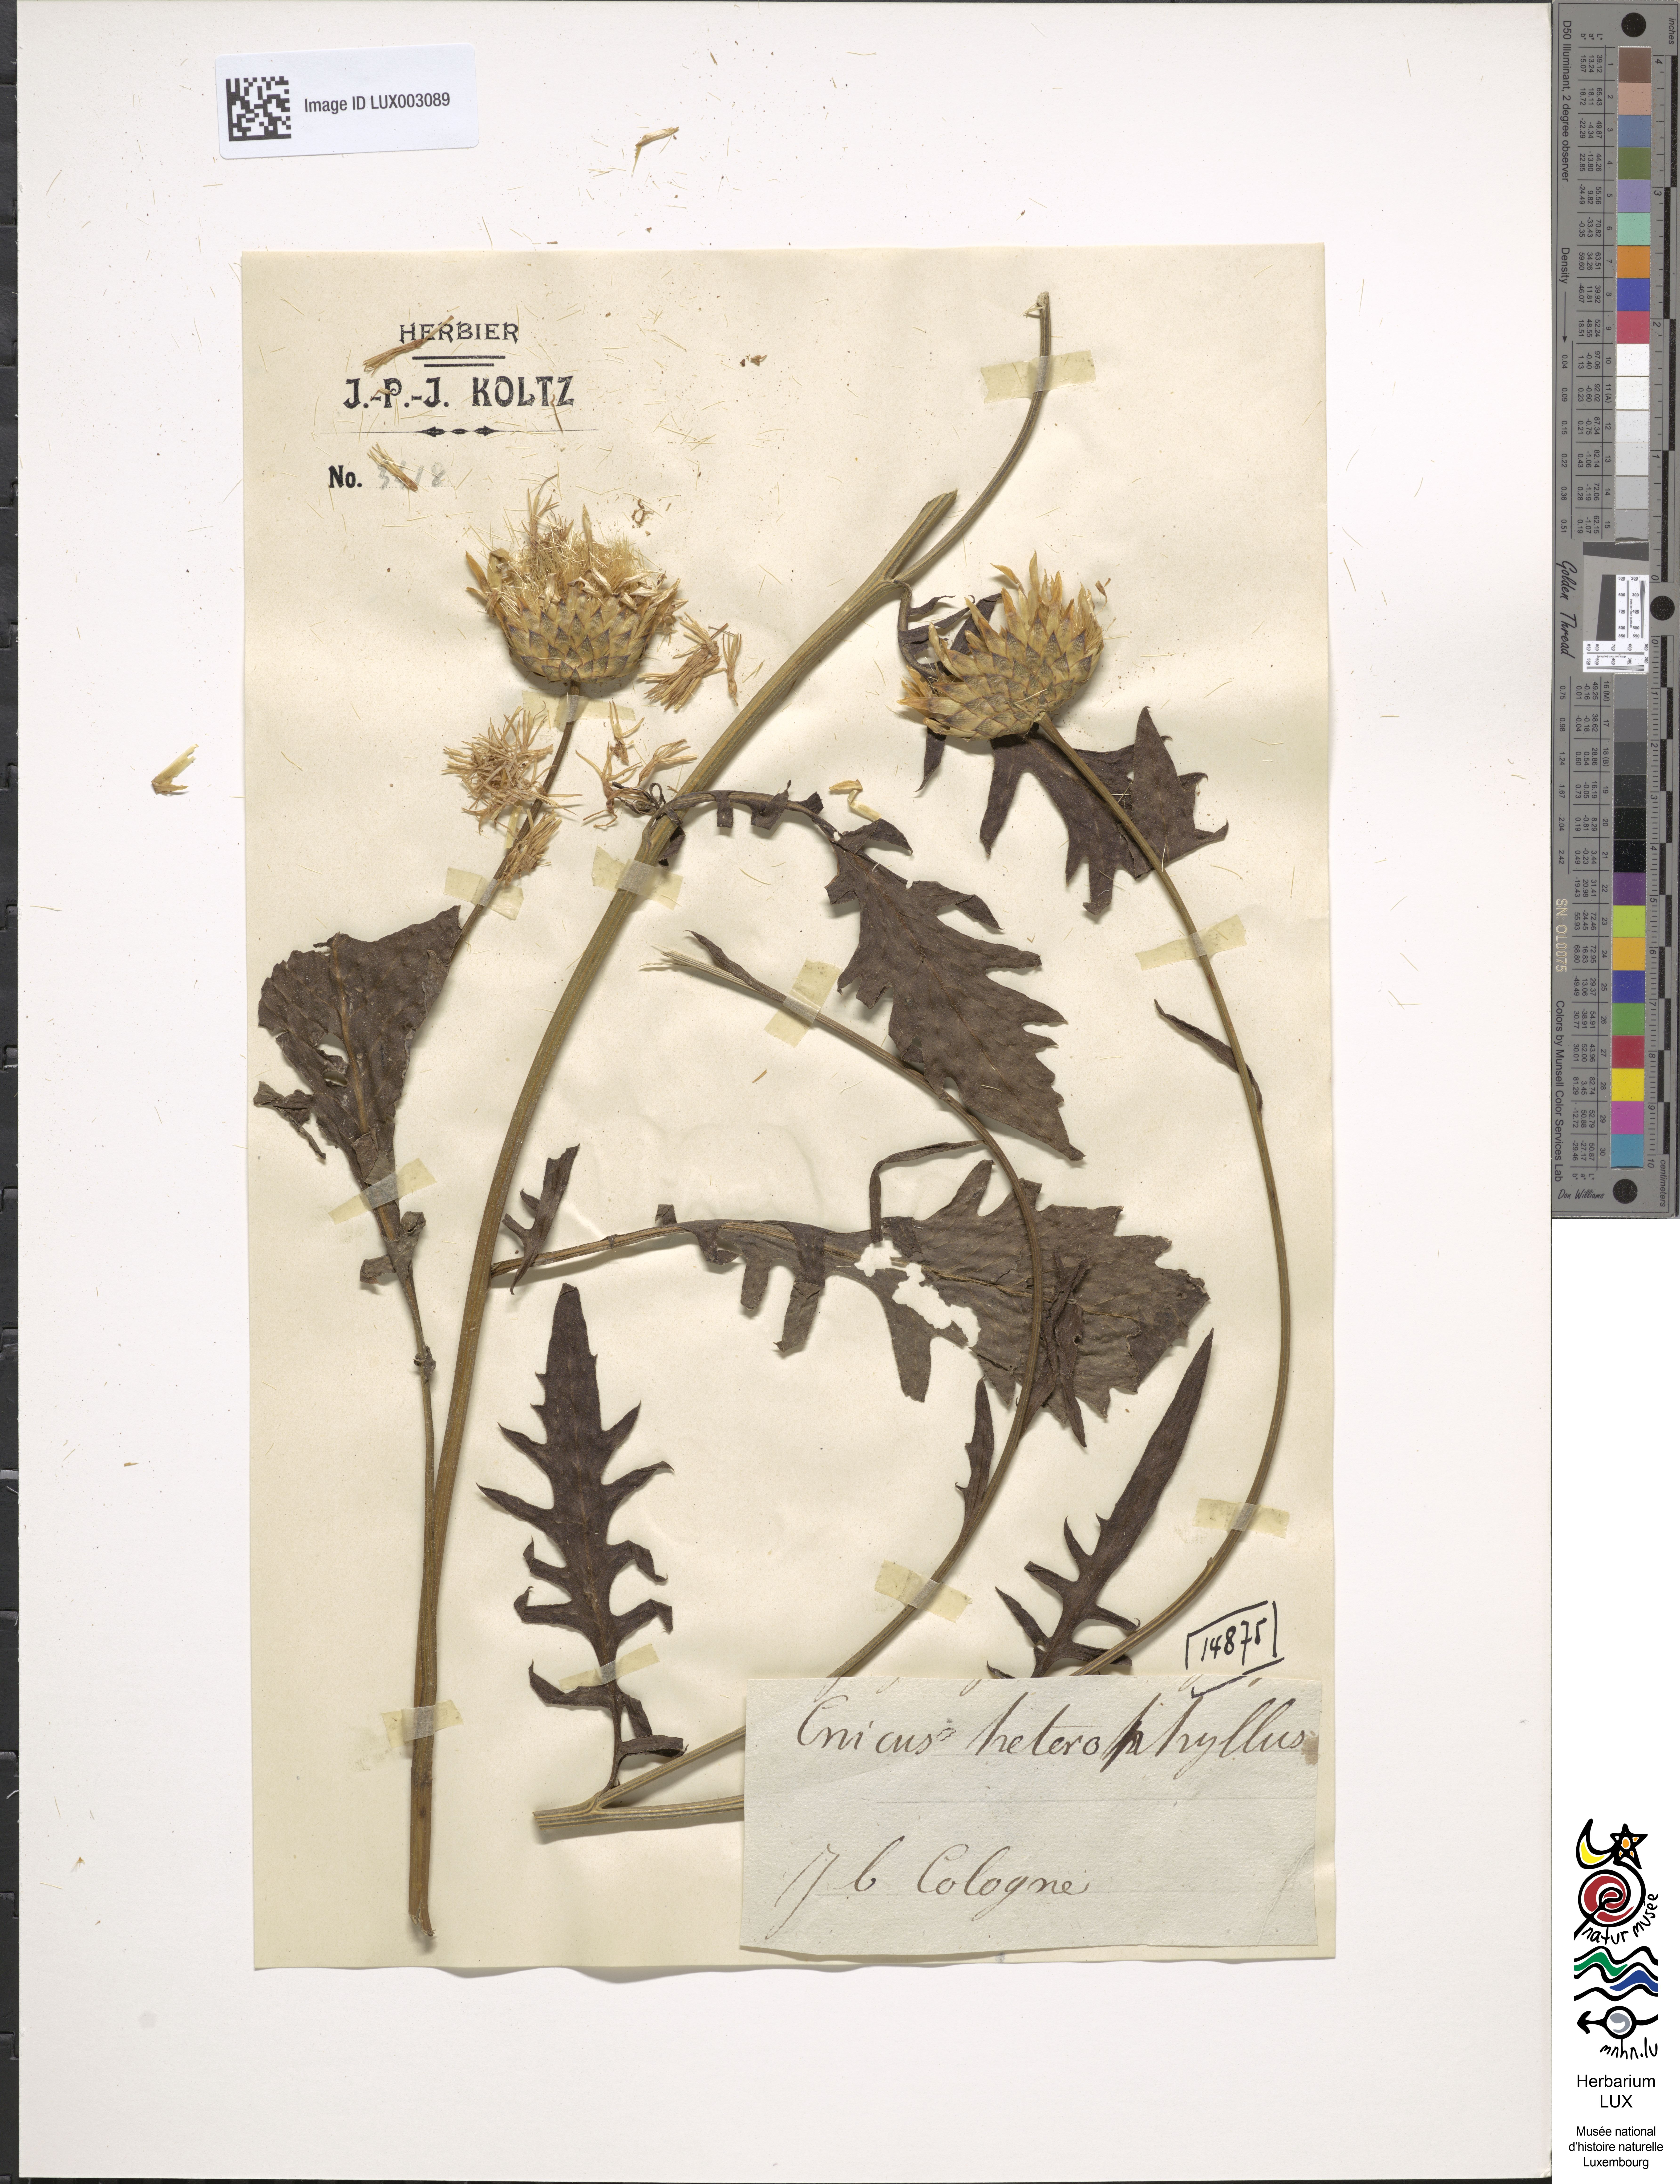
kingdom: Plantae
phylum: Tracheophyta
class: Magnoliopsida
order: Asterales
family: Asteraceae
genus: Cirsium
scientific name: Cirsium heterophyllum
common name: Melancholy thistle
